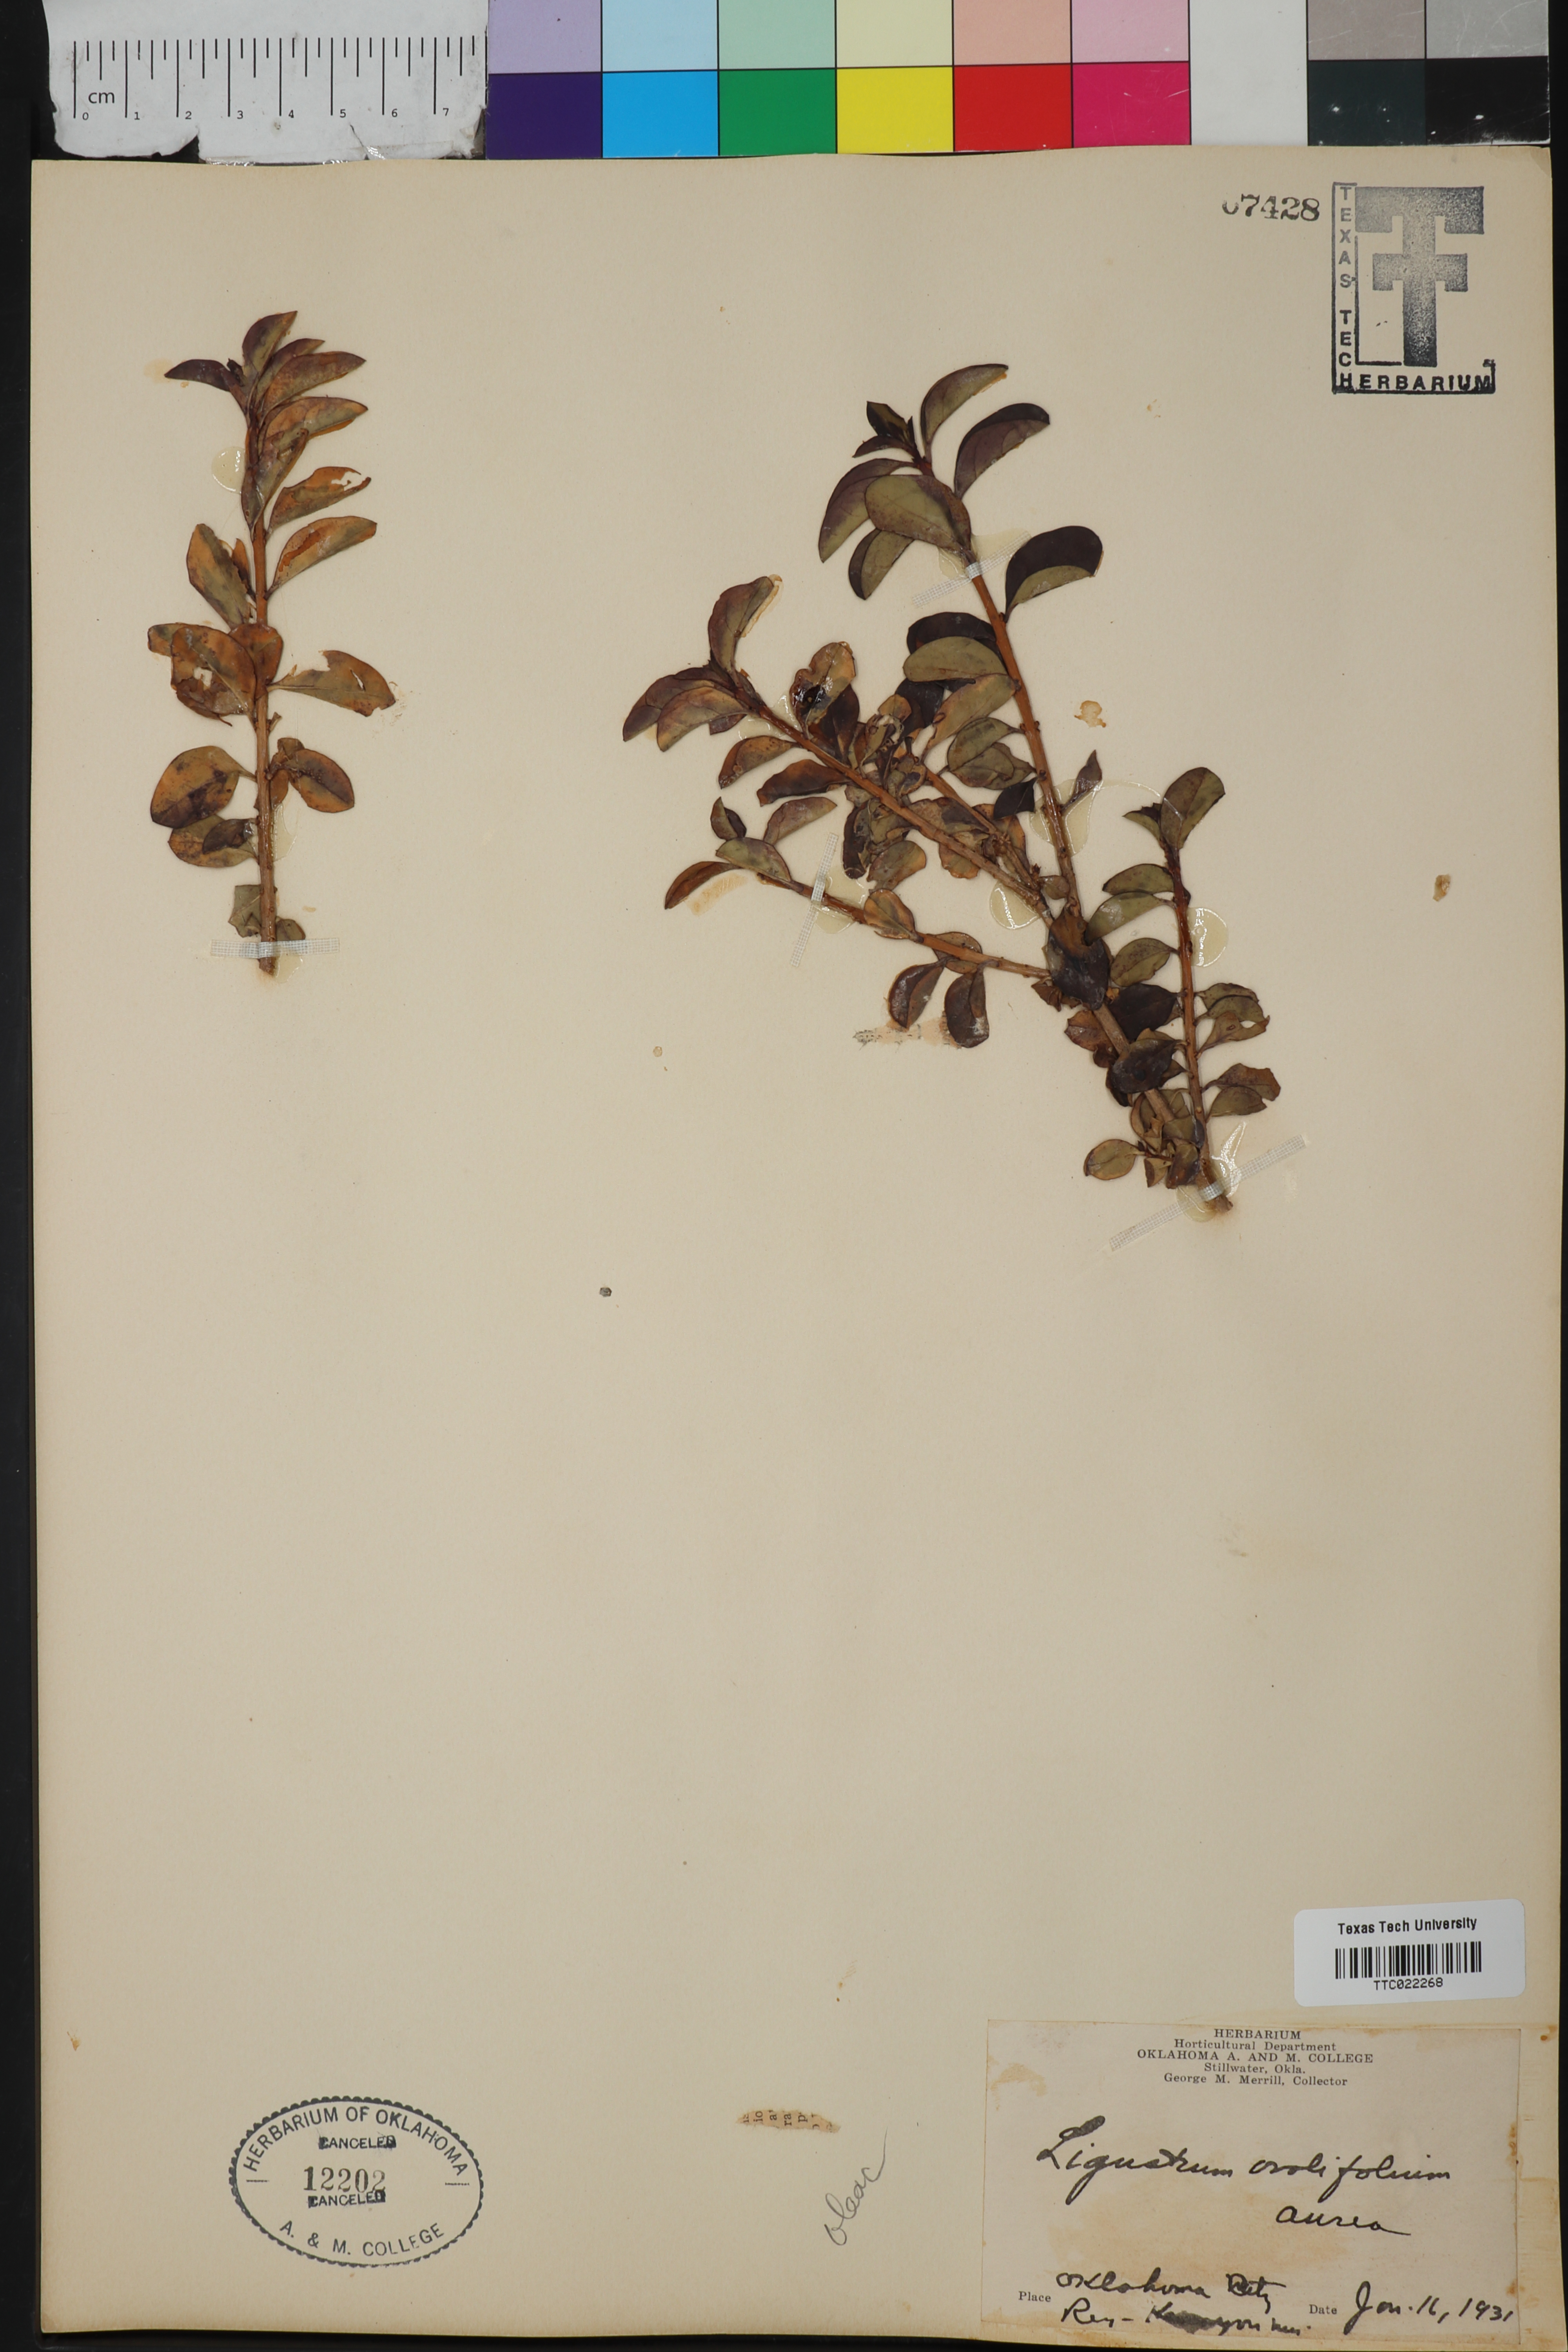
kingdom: Plantae
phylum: Tracheophyta
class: Magnoliopsida
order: Lamiales
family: Oleaceae
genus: Ligustrum
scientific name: Ligustrum ovalifolium
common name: California privet
